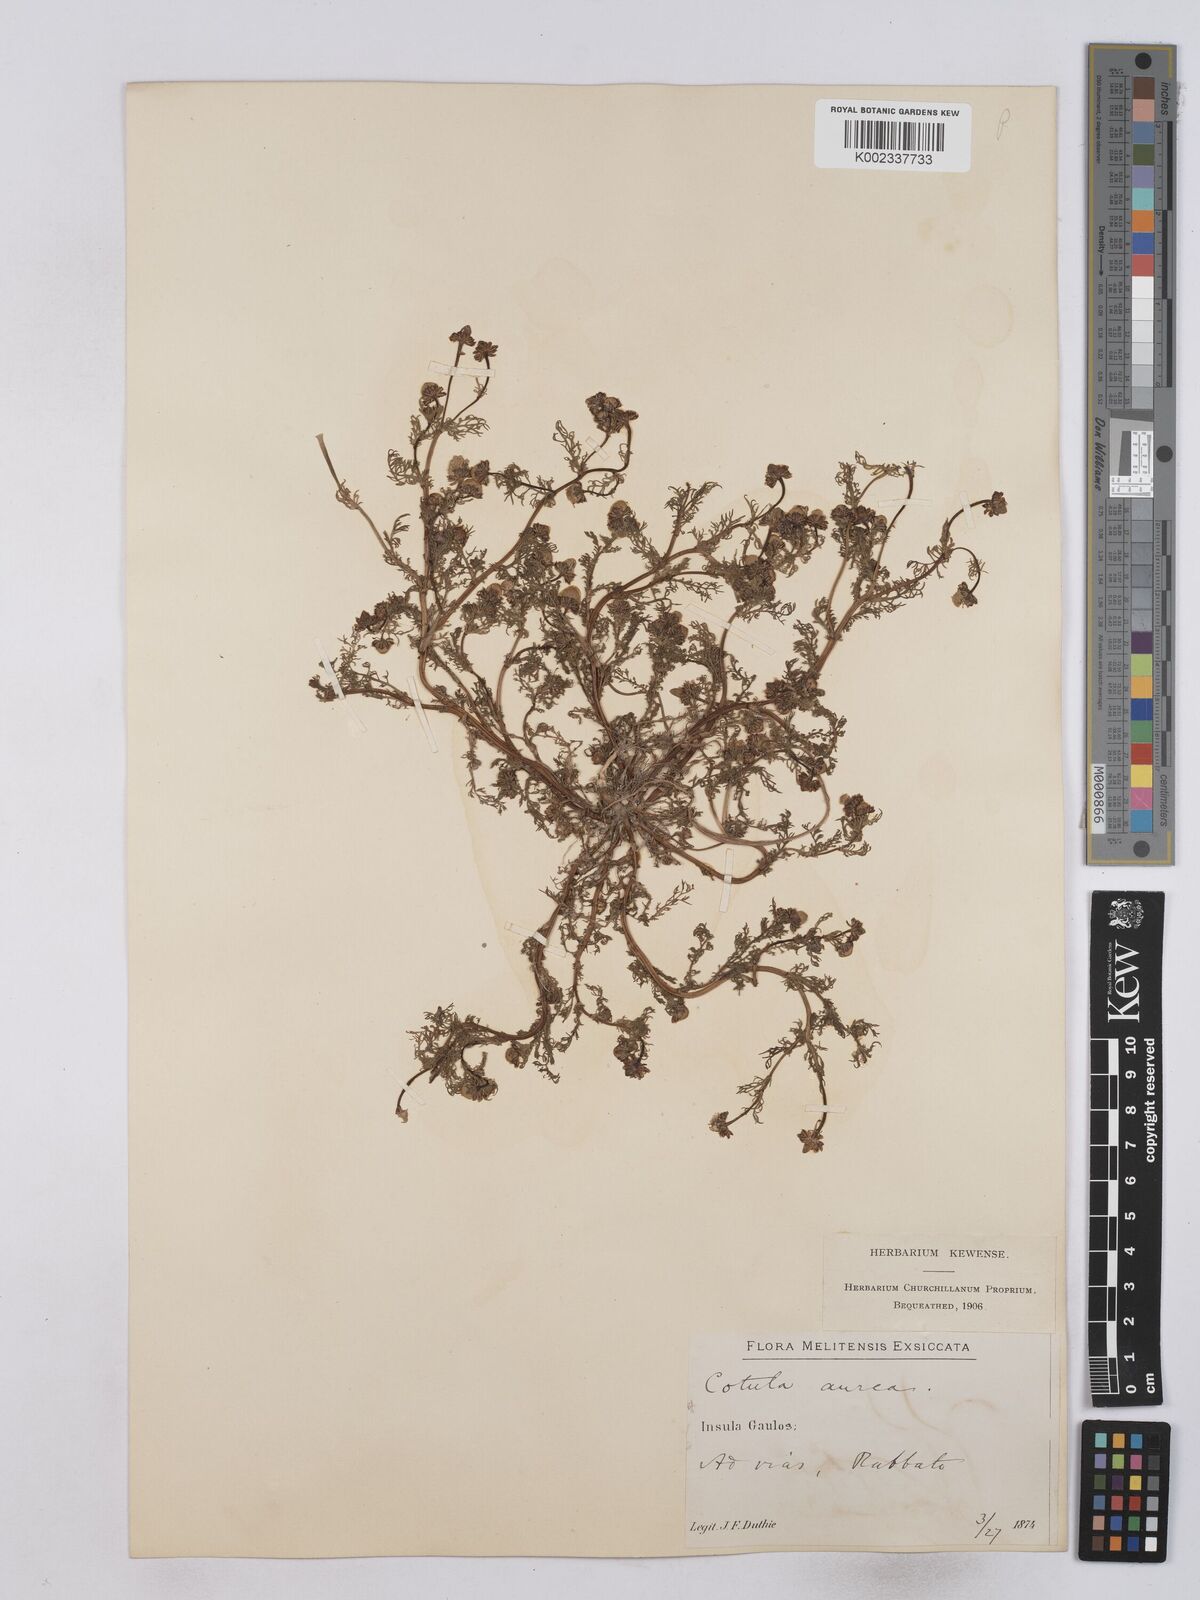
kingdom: Plantae
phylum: Tracheophyta
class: Magnoliopsida
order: Asterales
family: Asteraceae
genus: Matricaria
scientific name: Matricaria aurea
